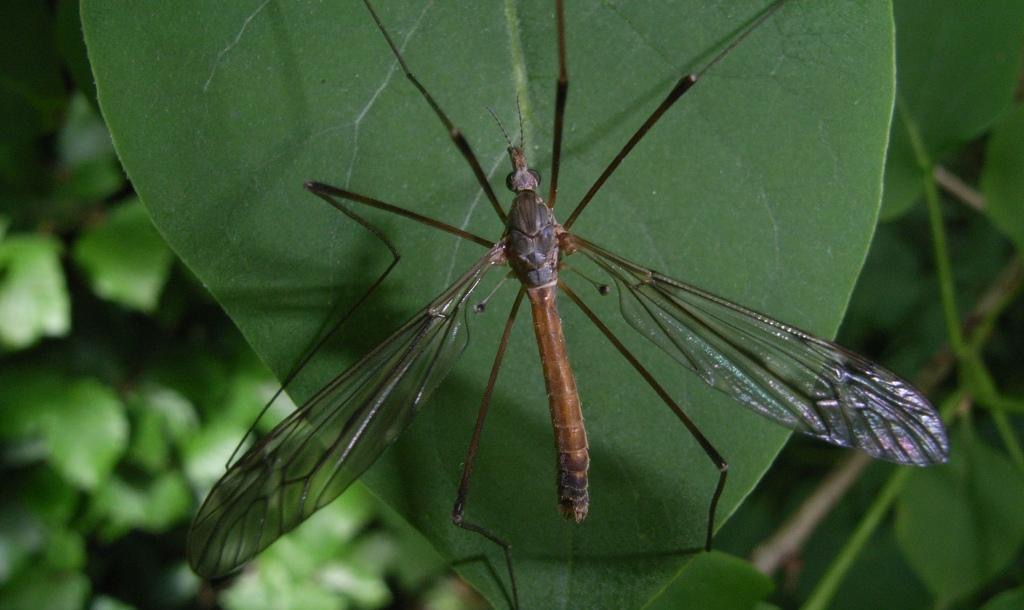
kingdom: Animalia
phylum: Arthropoda
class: Insecta
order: Diptera
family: Tipulidae
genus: Tipula
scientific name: Tipula scripta
